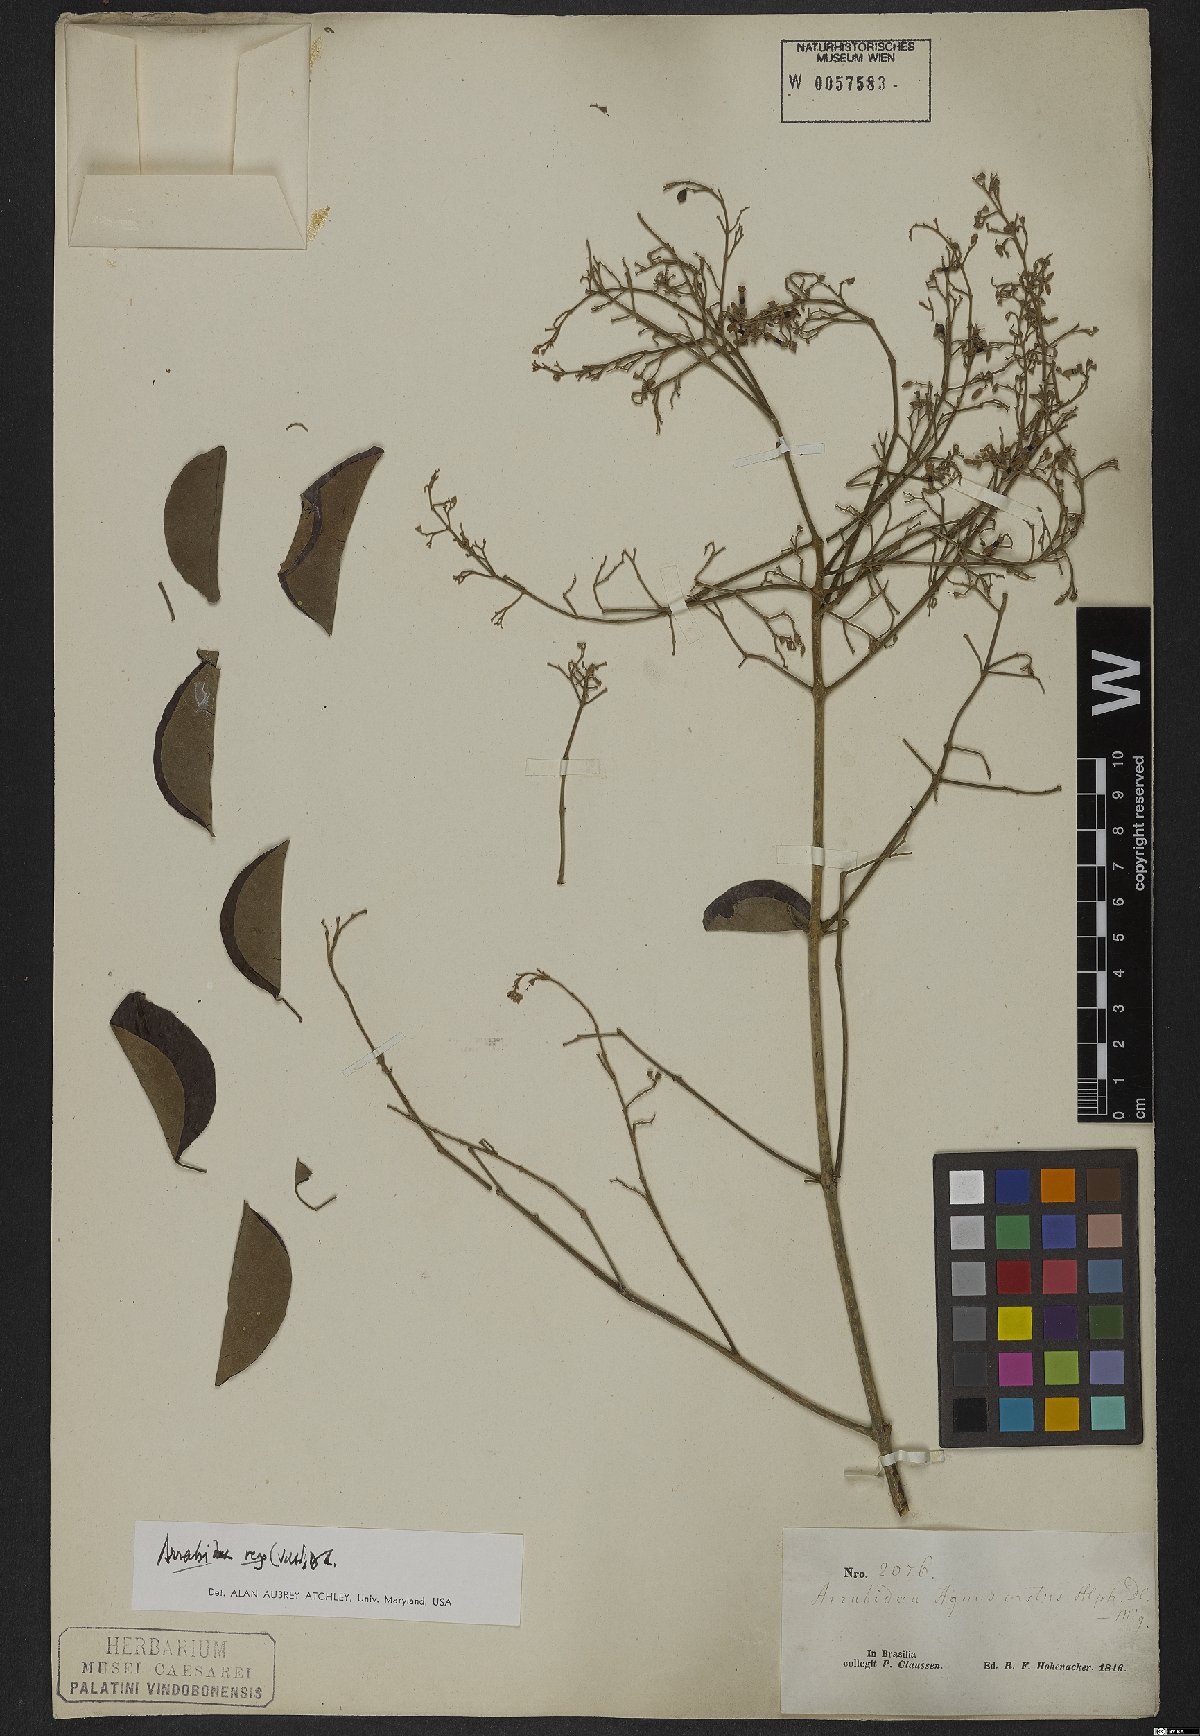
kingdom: Plantae
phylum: Tracheophyta
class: Magnoliopsida
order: Lamiales
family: Bignoniaceae
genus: Fridericia
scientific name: Fridericia rego
